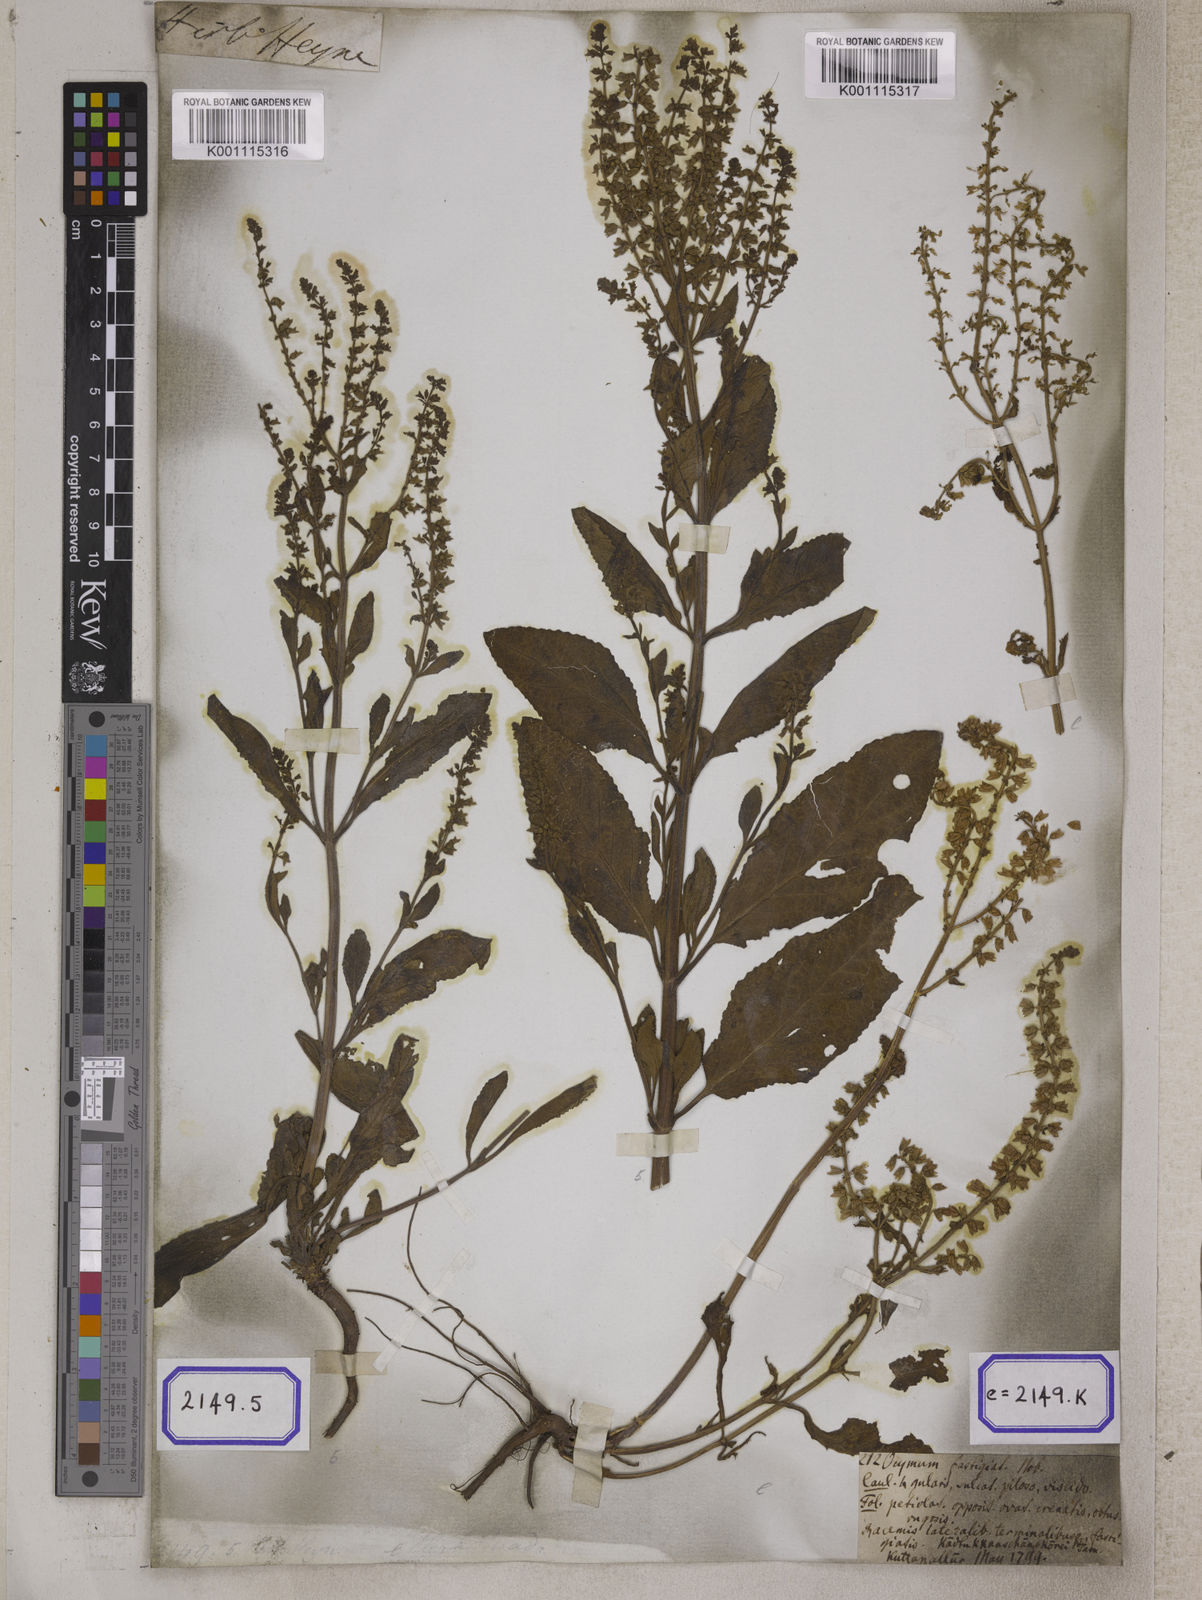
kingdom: Plantae
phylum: Tracheophyta
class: Magnoliopsida
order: Lamiales
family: Lamiaceae
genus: Salvia
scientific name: Salvia plebeia
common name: Australian sage
